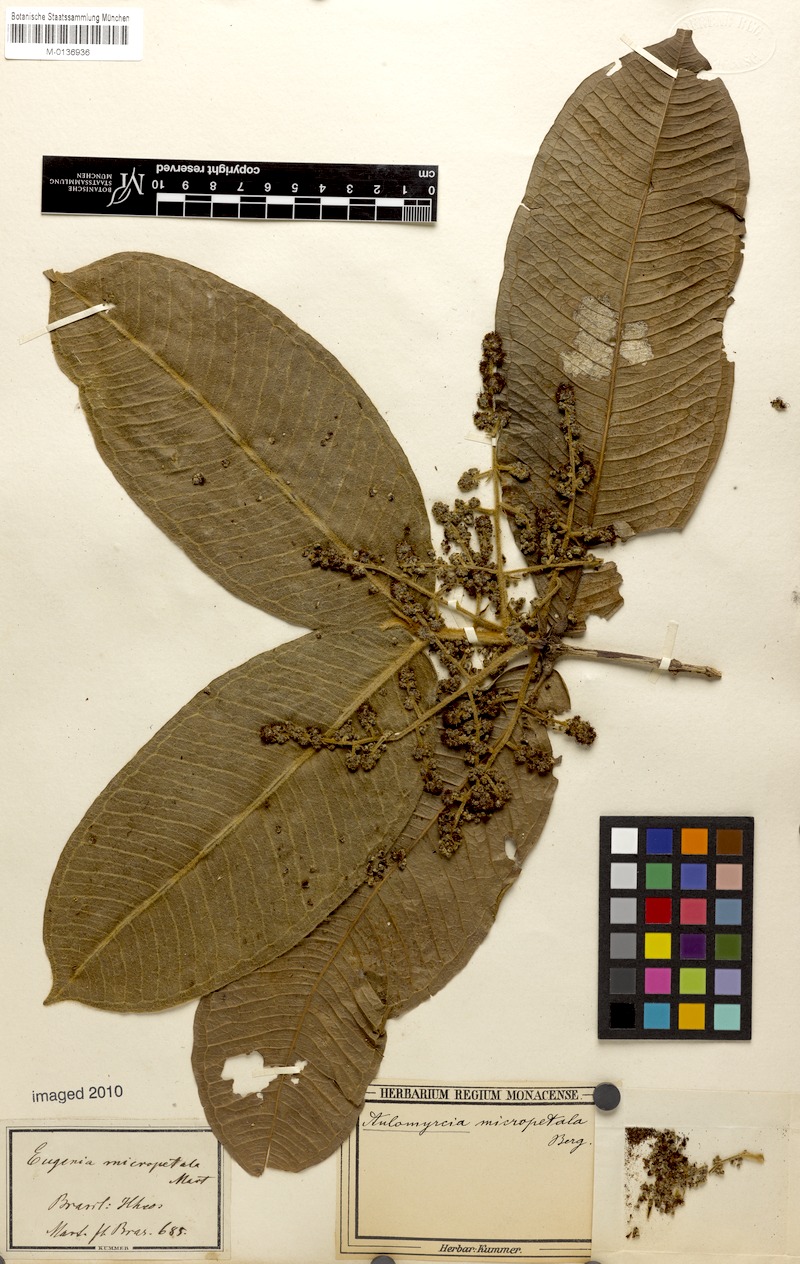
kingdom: Plantae
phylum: Tracheophyta
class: Magnoliopsida
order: Myrtales
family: Myrtaceae
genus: Myrcia
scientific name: Myrcia micropetala
